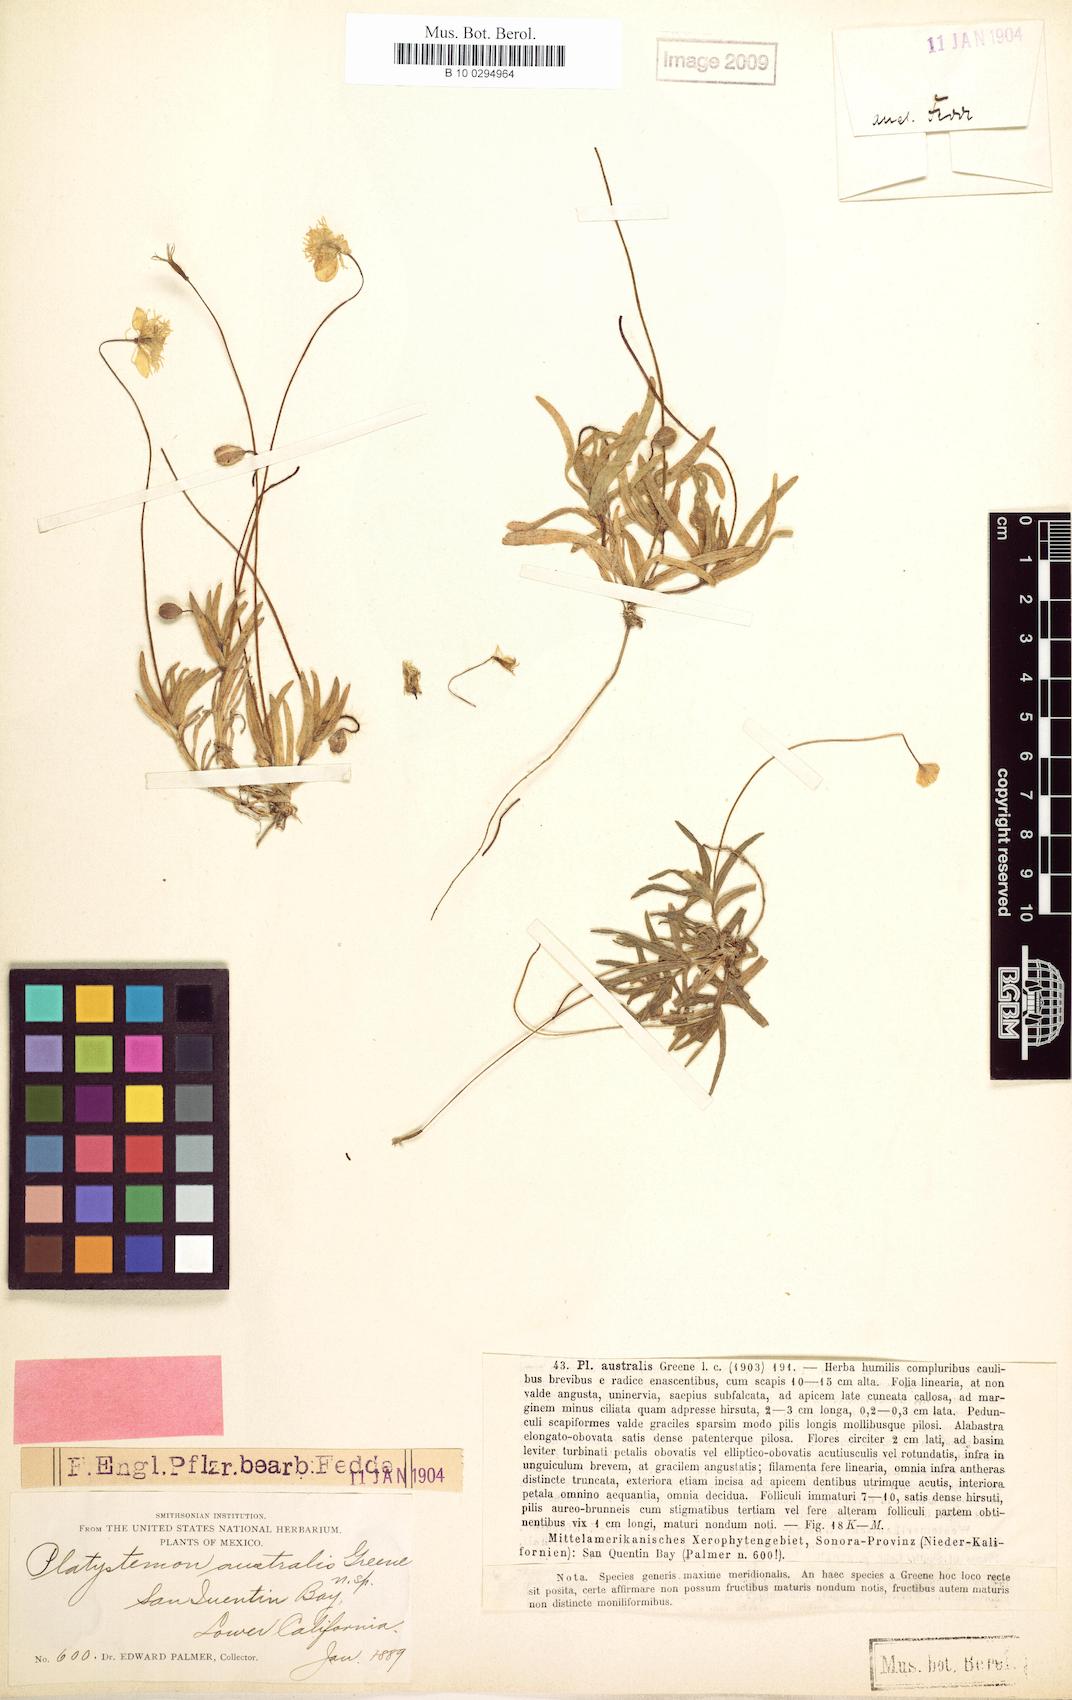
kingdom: Plantae
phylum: Tracheophyta
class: Magnoliopsida
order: Ranunculales
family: Papaveraceae
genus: Platystemon
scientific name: Platystemon californicus
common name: Cream-cups
